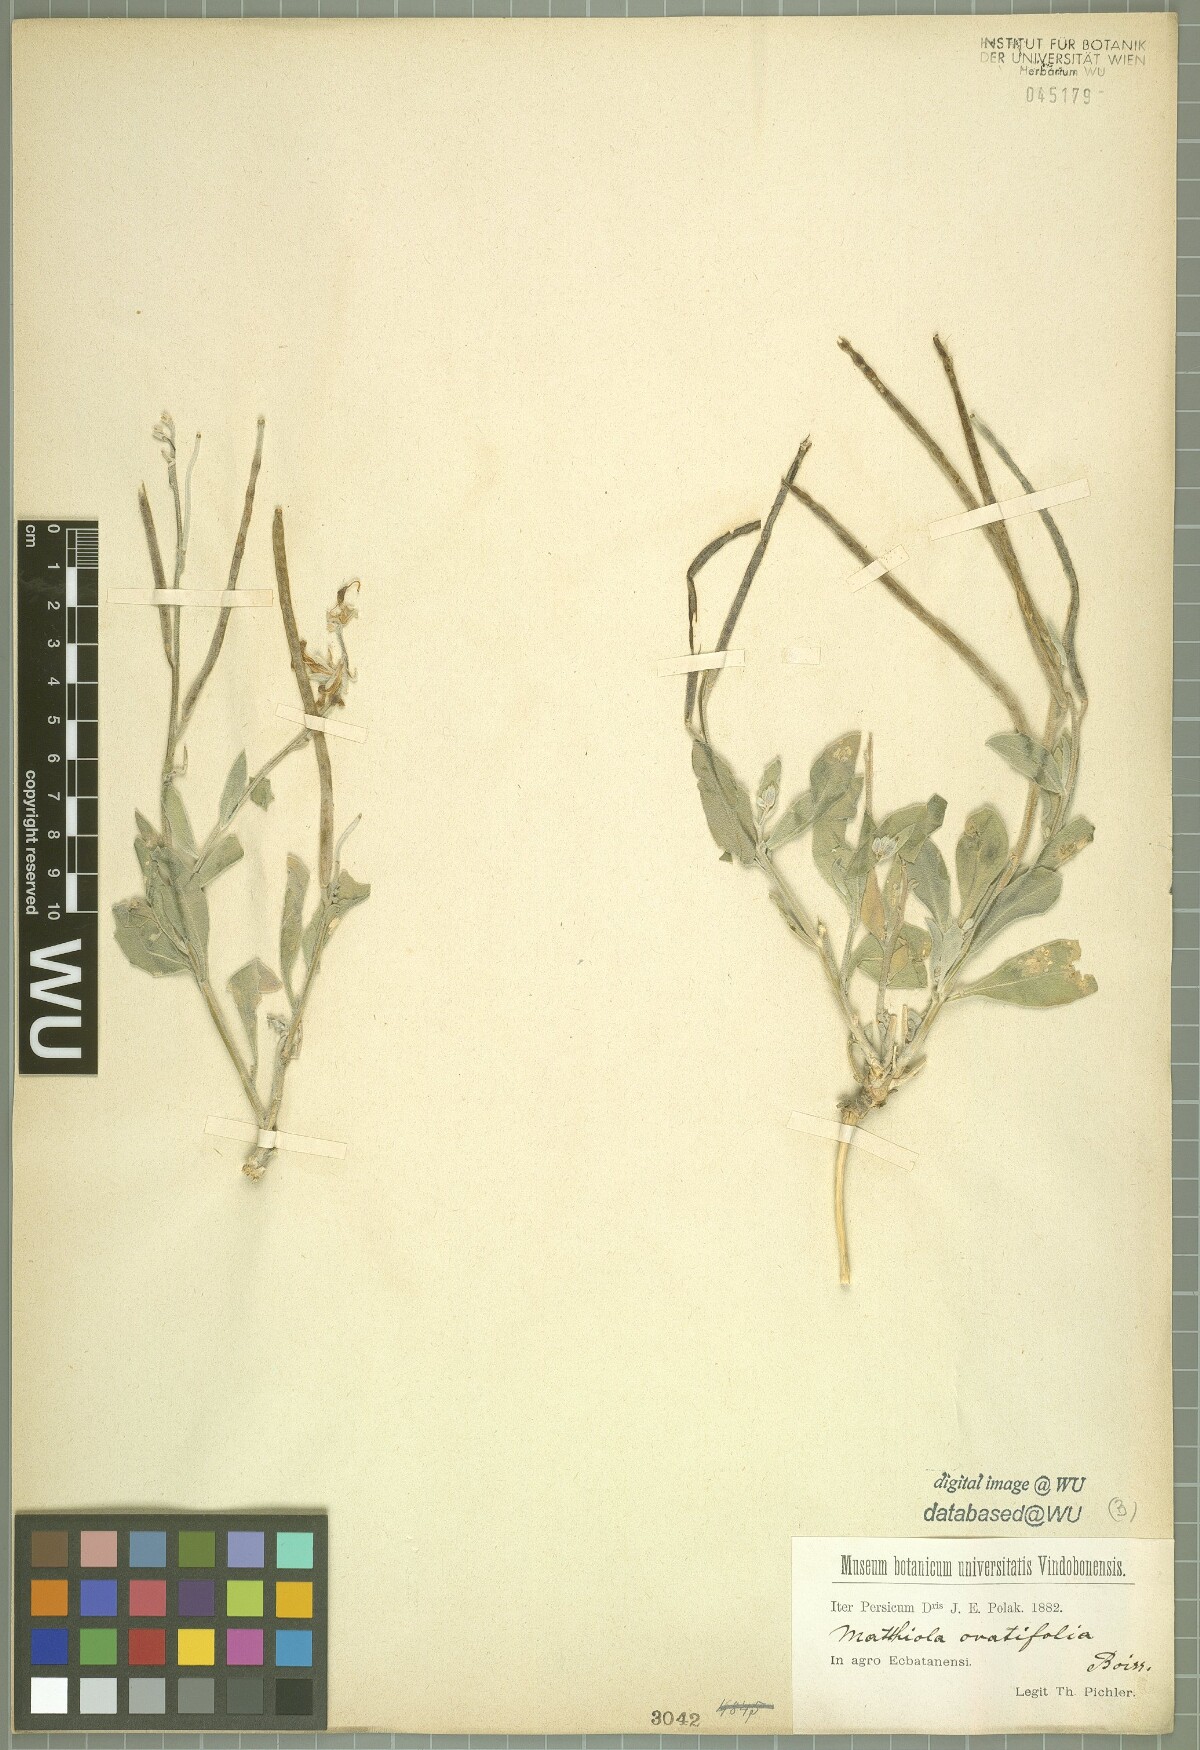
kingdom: Plantae
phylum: Tracheophyta
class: Magnoliopsida
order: Brassicales
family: Brassicaceae
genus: Matthiola
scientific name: Matthiola ovatifolia
